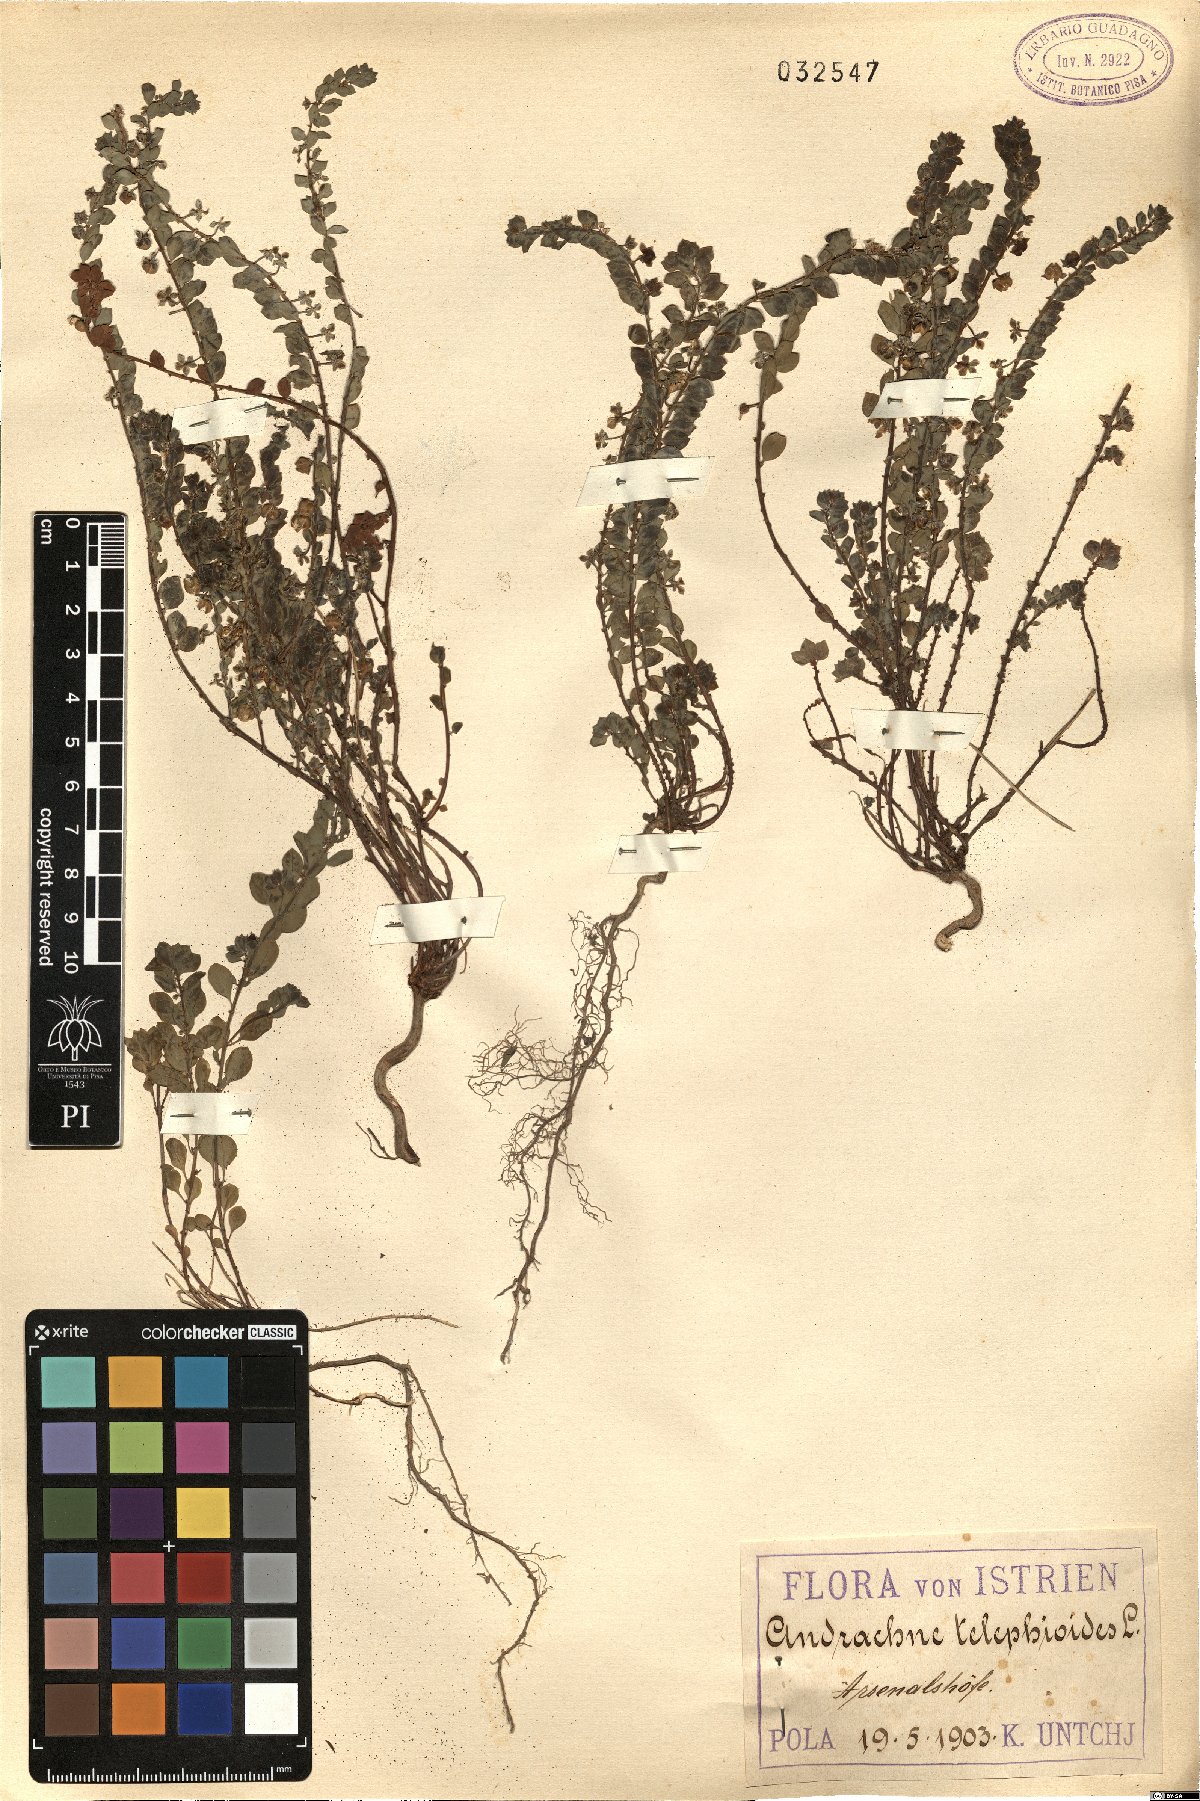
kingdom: Plantae
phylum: Tracheophyta
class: Magnoliopsida
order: Malpighiales
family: Phyllanthaceae
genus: Andrachne
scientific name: Andrachne telephioides
